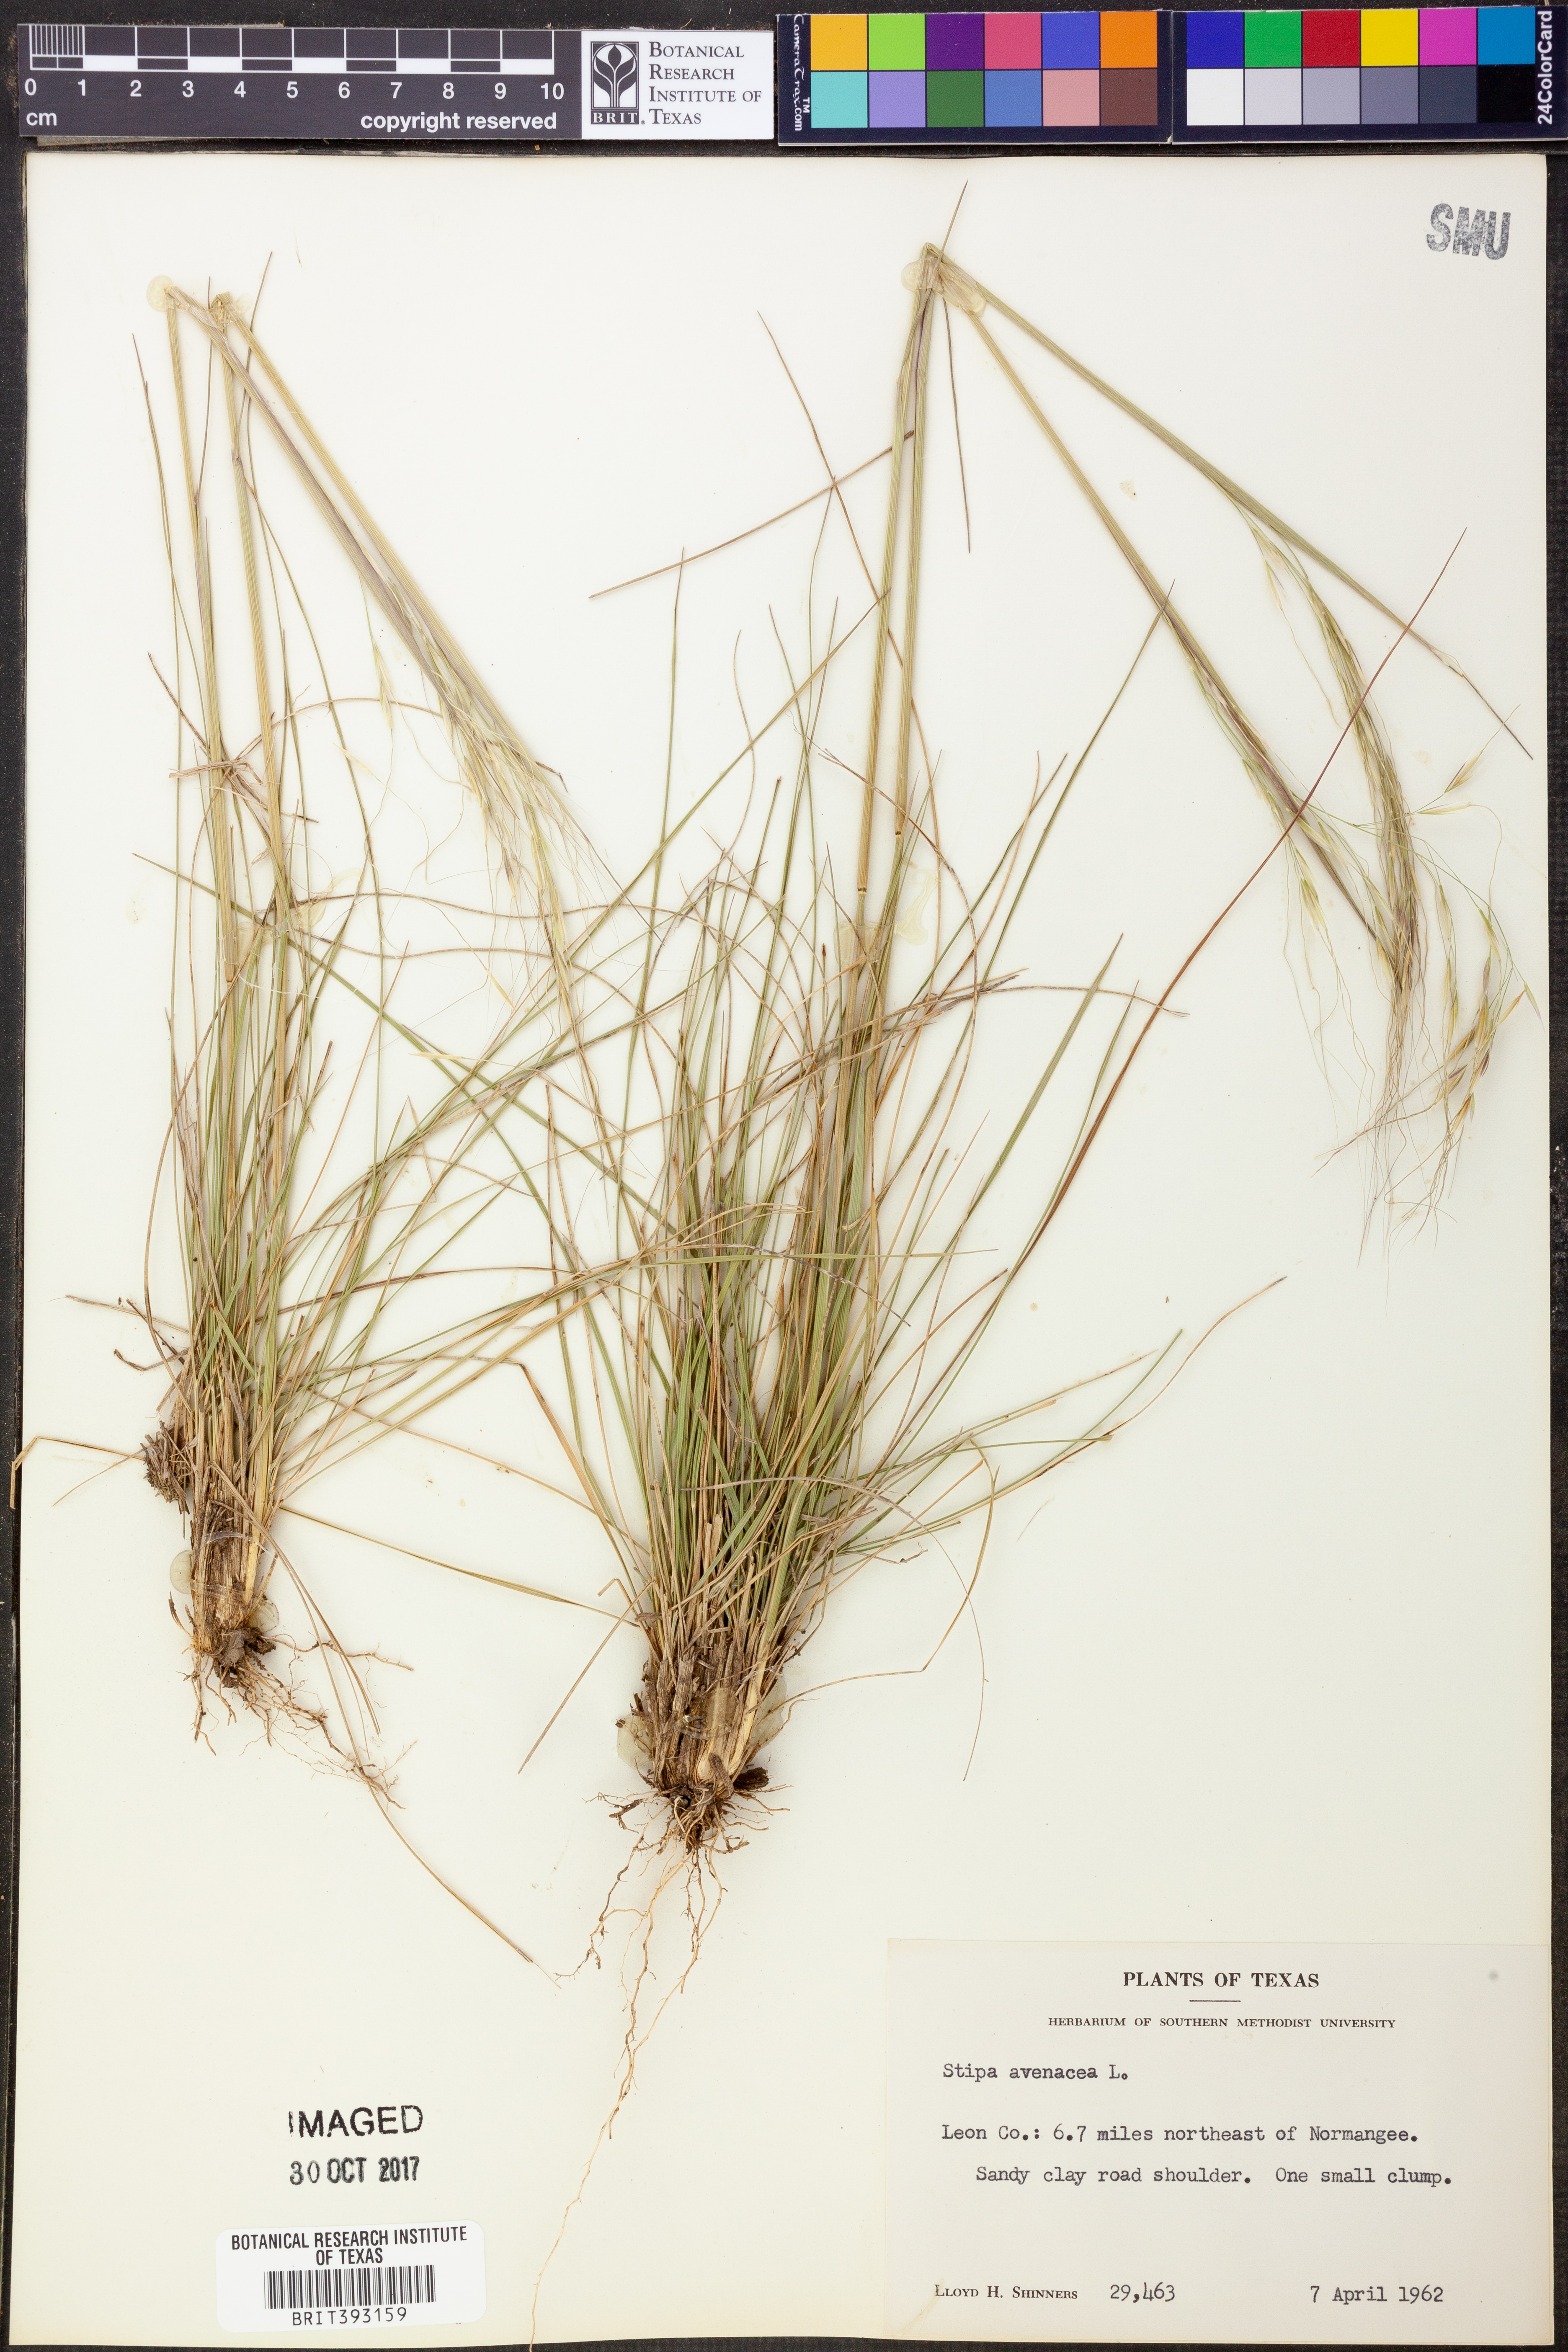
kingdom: Plantae
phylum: Tracheophyta
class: Liliopsida
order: Poales
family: Poaceae
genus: Piptochaetium
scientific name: Piptochaetium avenaceum
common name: Black bunchgrass
